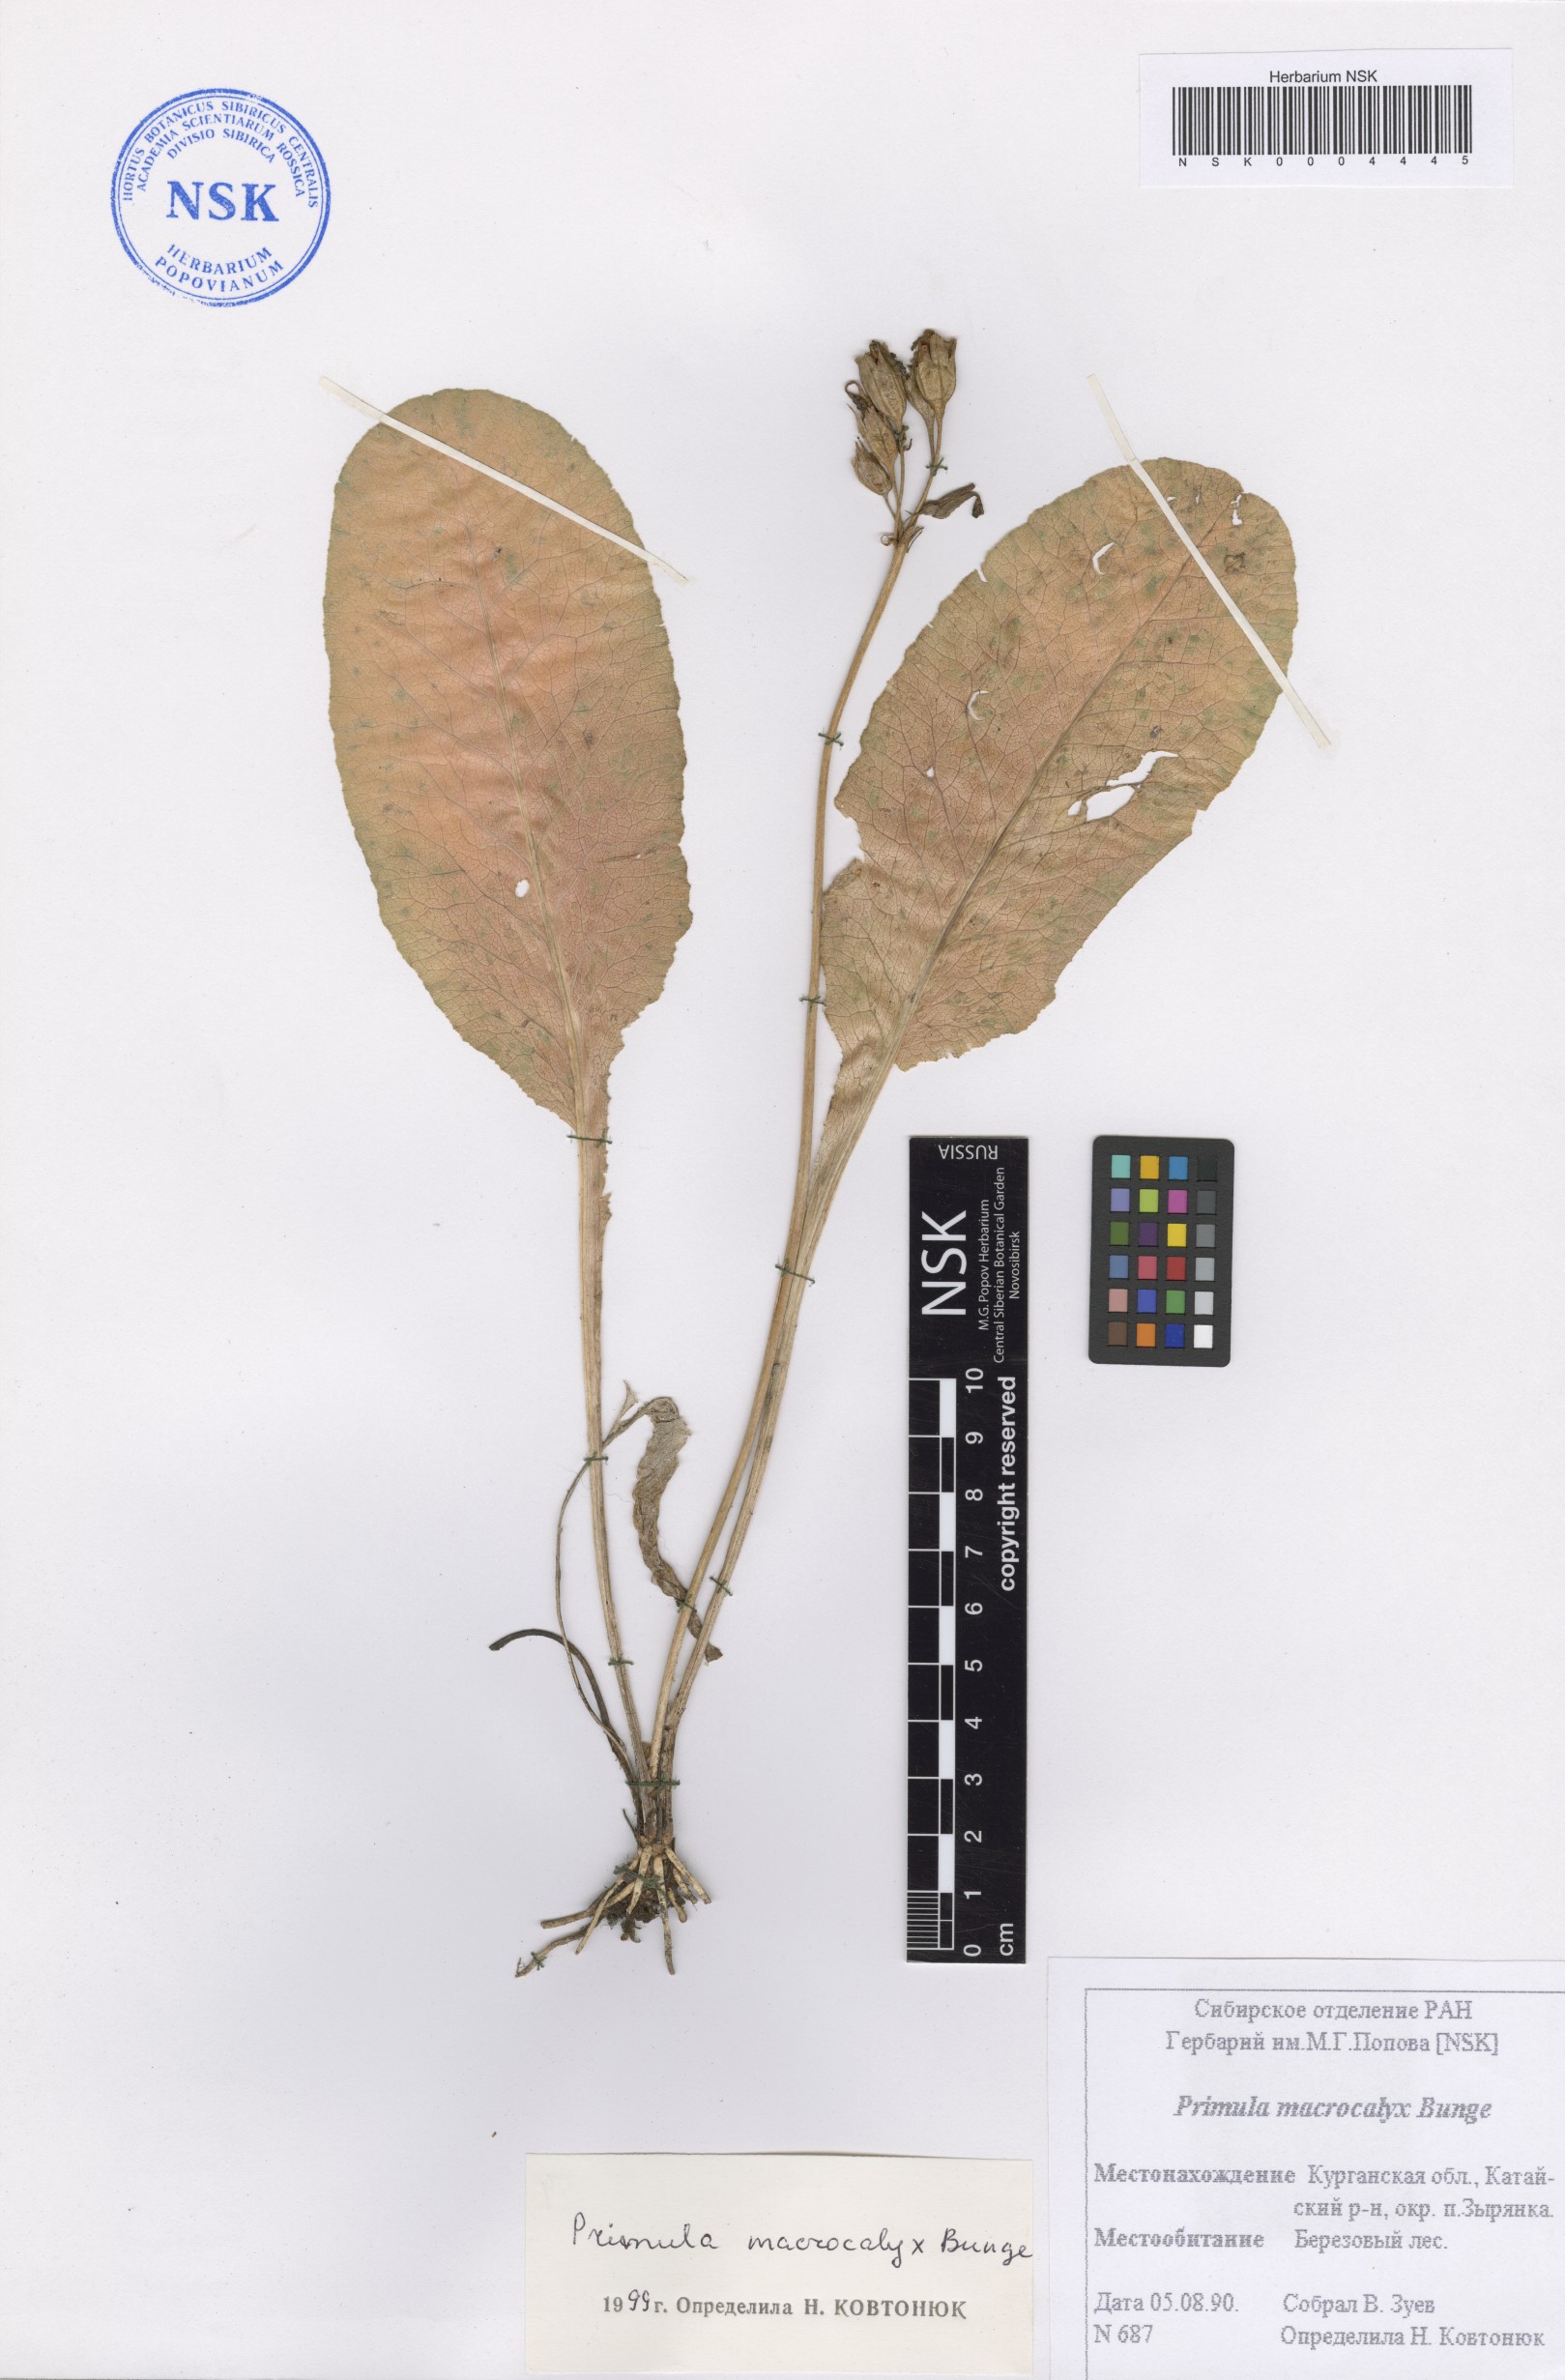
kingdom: Plantae
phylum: Tracheophyta
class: Magnoliopsida
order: Ericales
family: Primulaceae
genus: Primula
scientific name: Primula veris
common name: Cowslip
